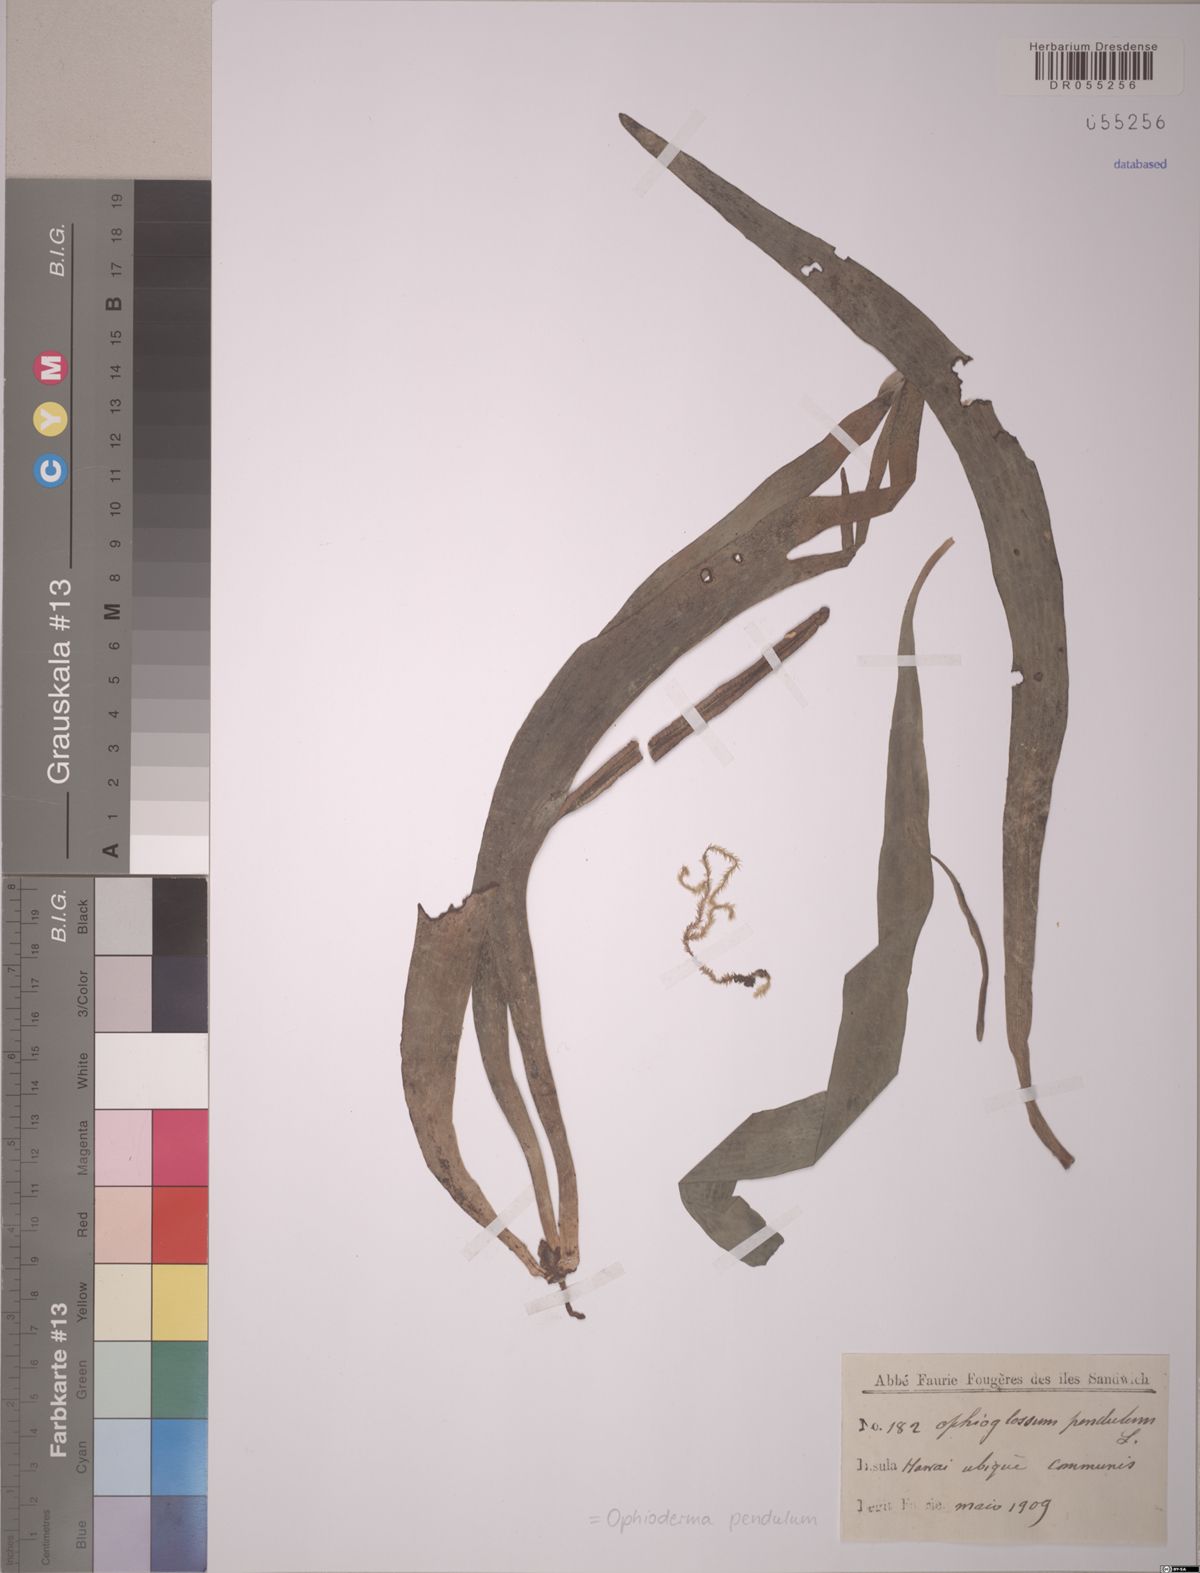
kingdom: Plantae
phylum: Tracheophyta
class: Polypodiopsida
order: Ophioglossales
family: Ophioglossaceae
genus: Ophioderma
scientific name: Ophioderma pendulum
